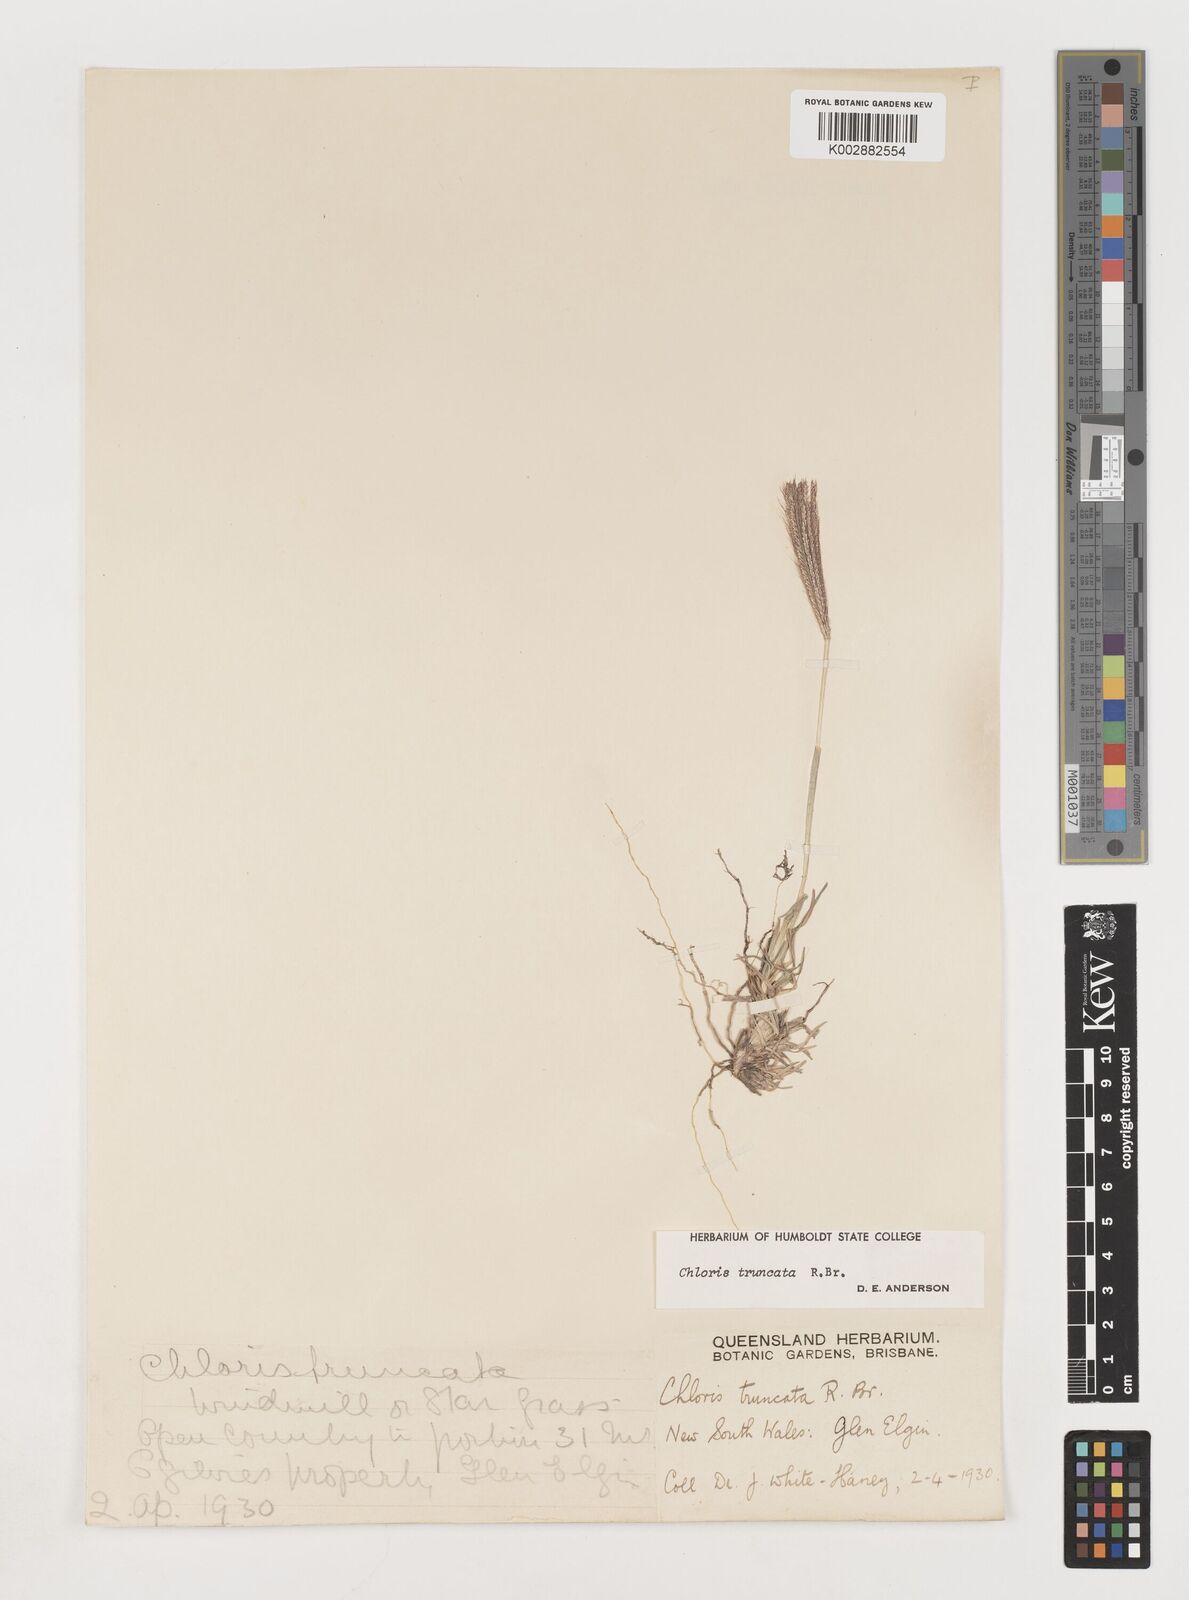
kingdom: Plantae
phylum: Tracheophyta
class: Liliopsida
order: Poales
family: Poaceae
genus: Chloris
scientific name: Chloris truncata
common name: Windmill-grass
